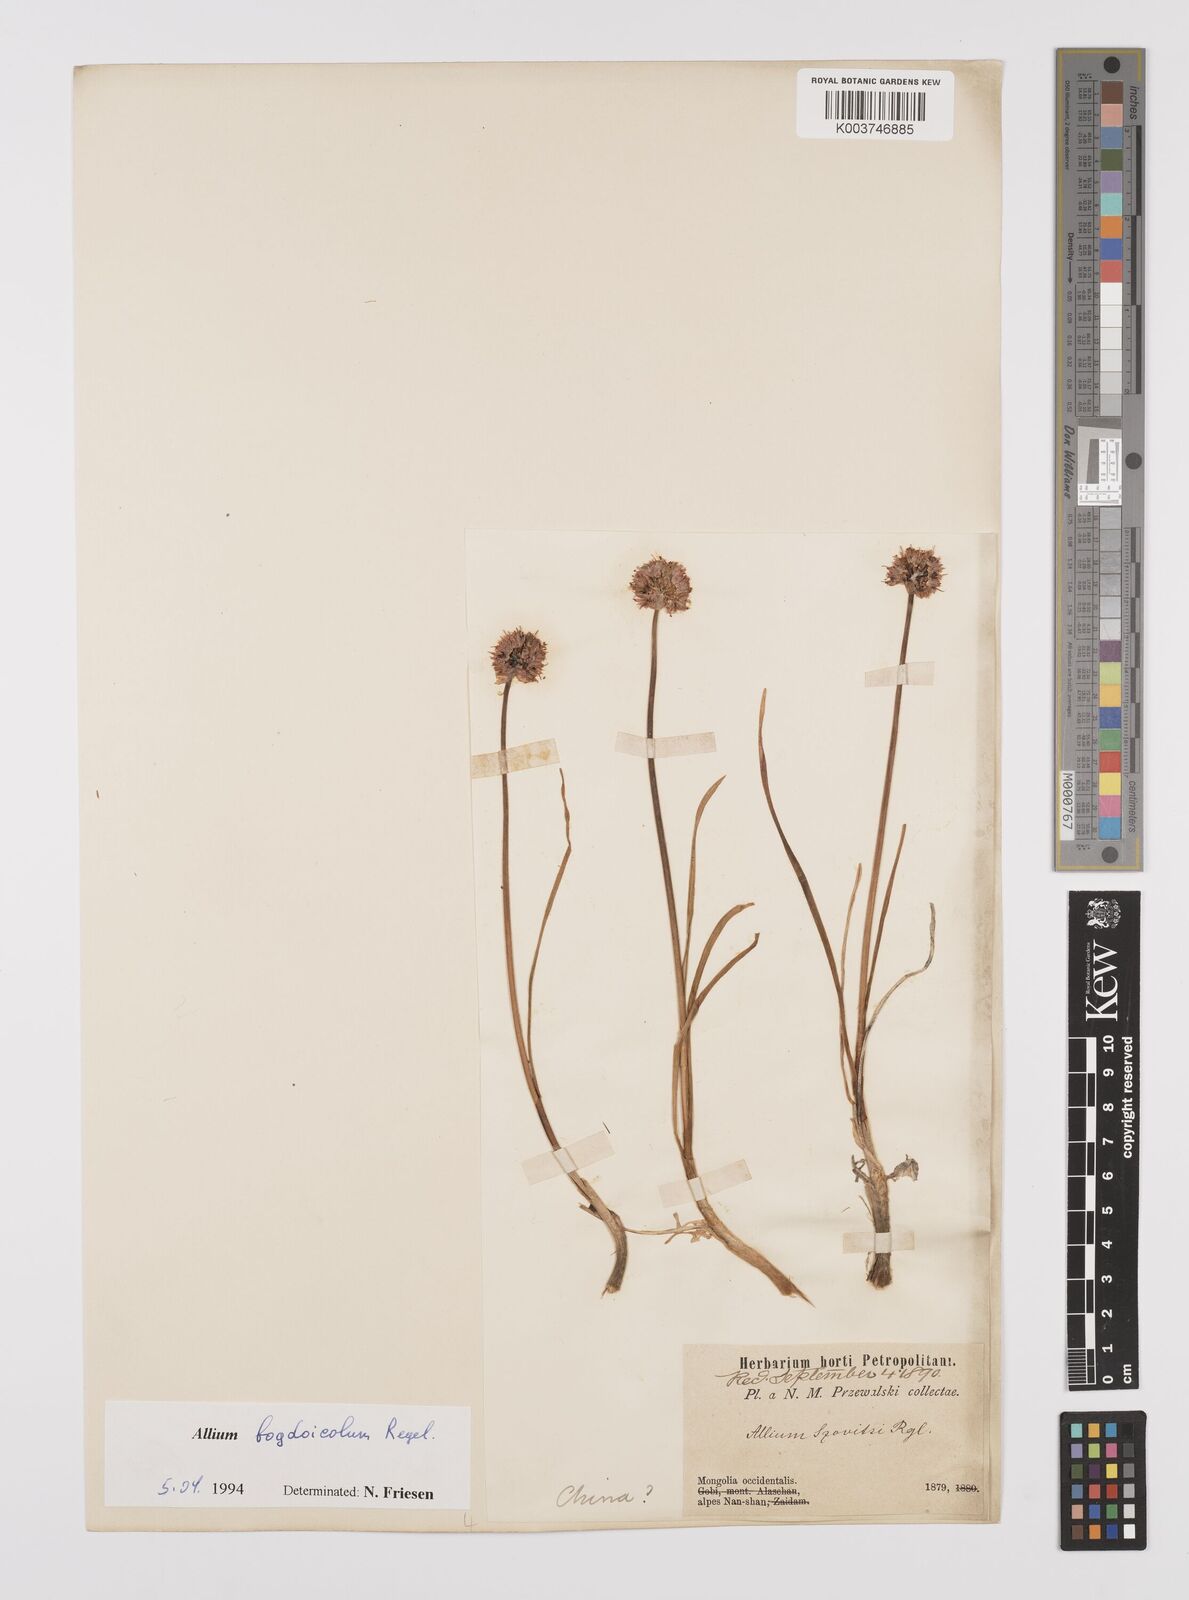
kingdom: Plantae
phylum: Tracheophyta
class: Liliopsida
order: Asparagales
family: Amaryllidaceae
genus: Allium
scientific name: Allium schrenkii
